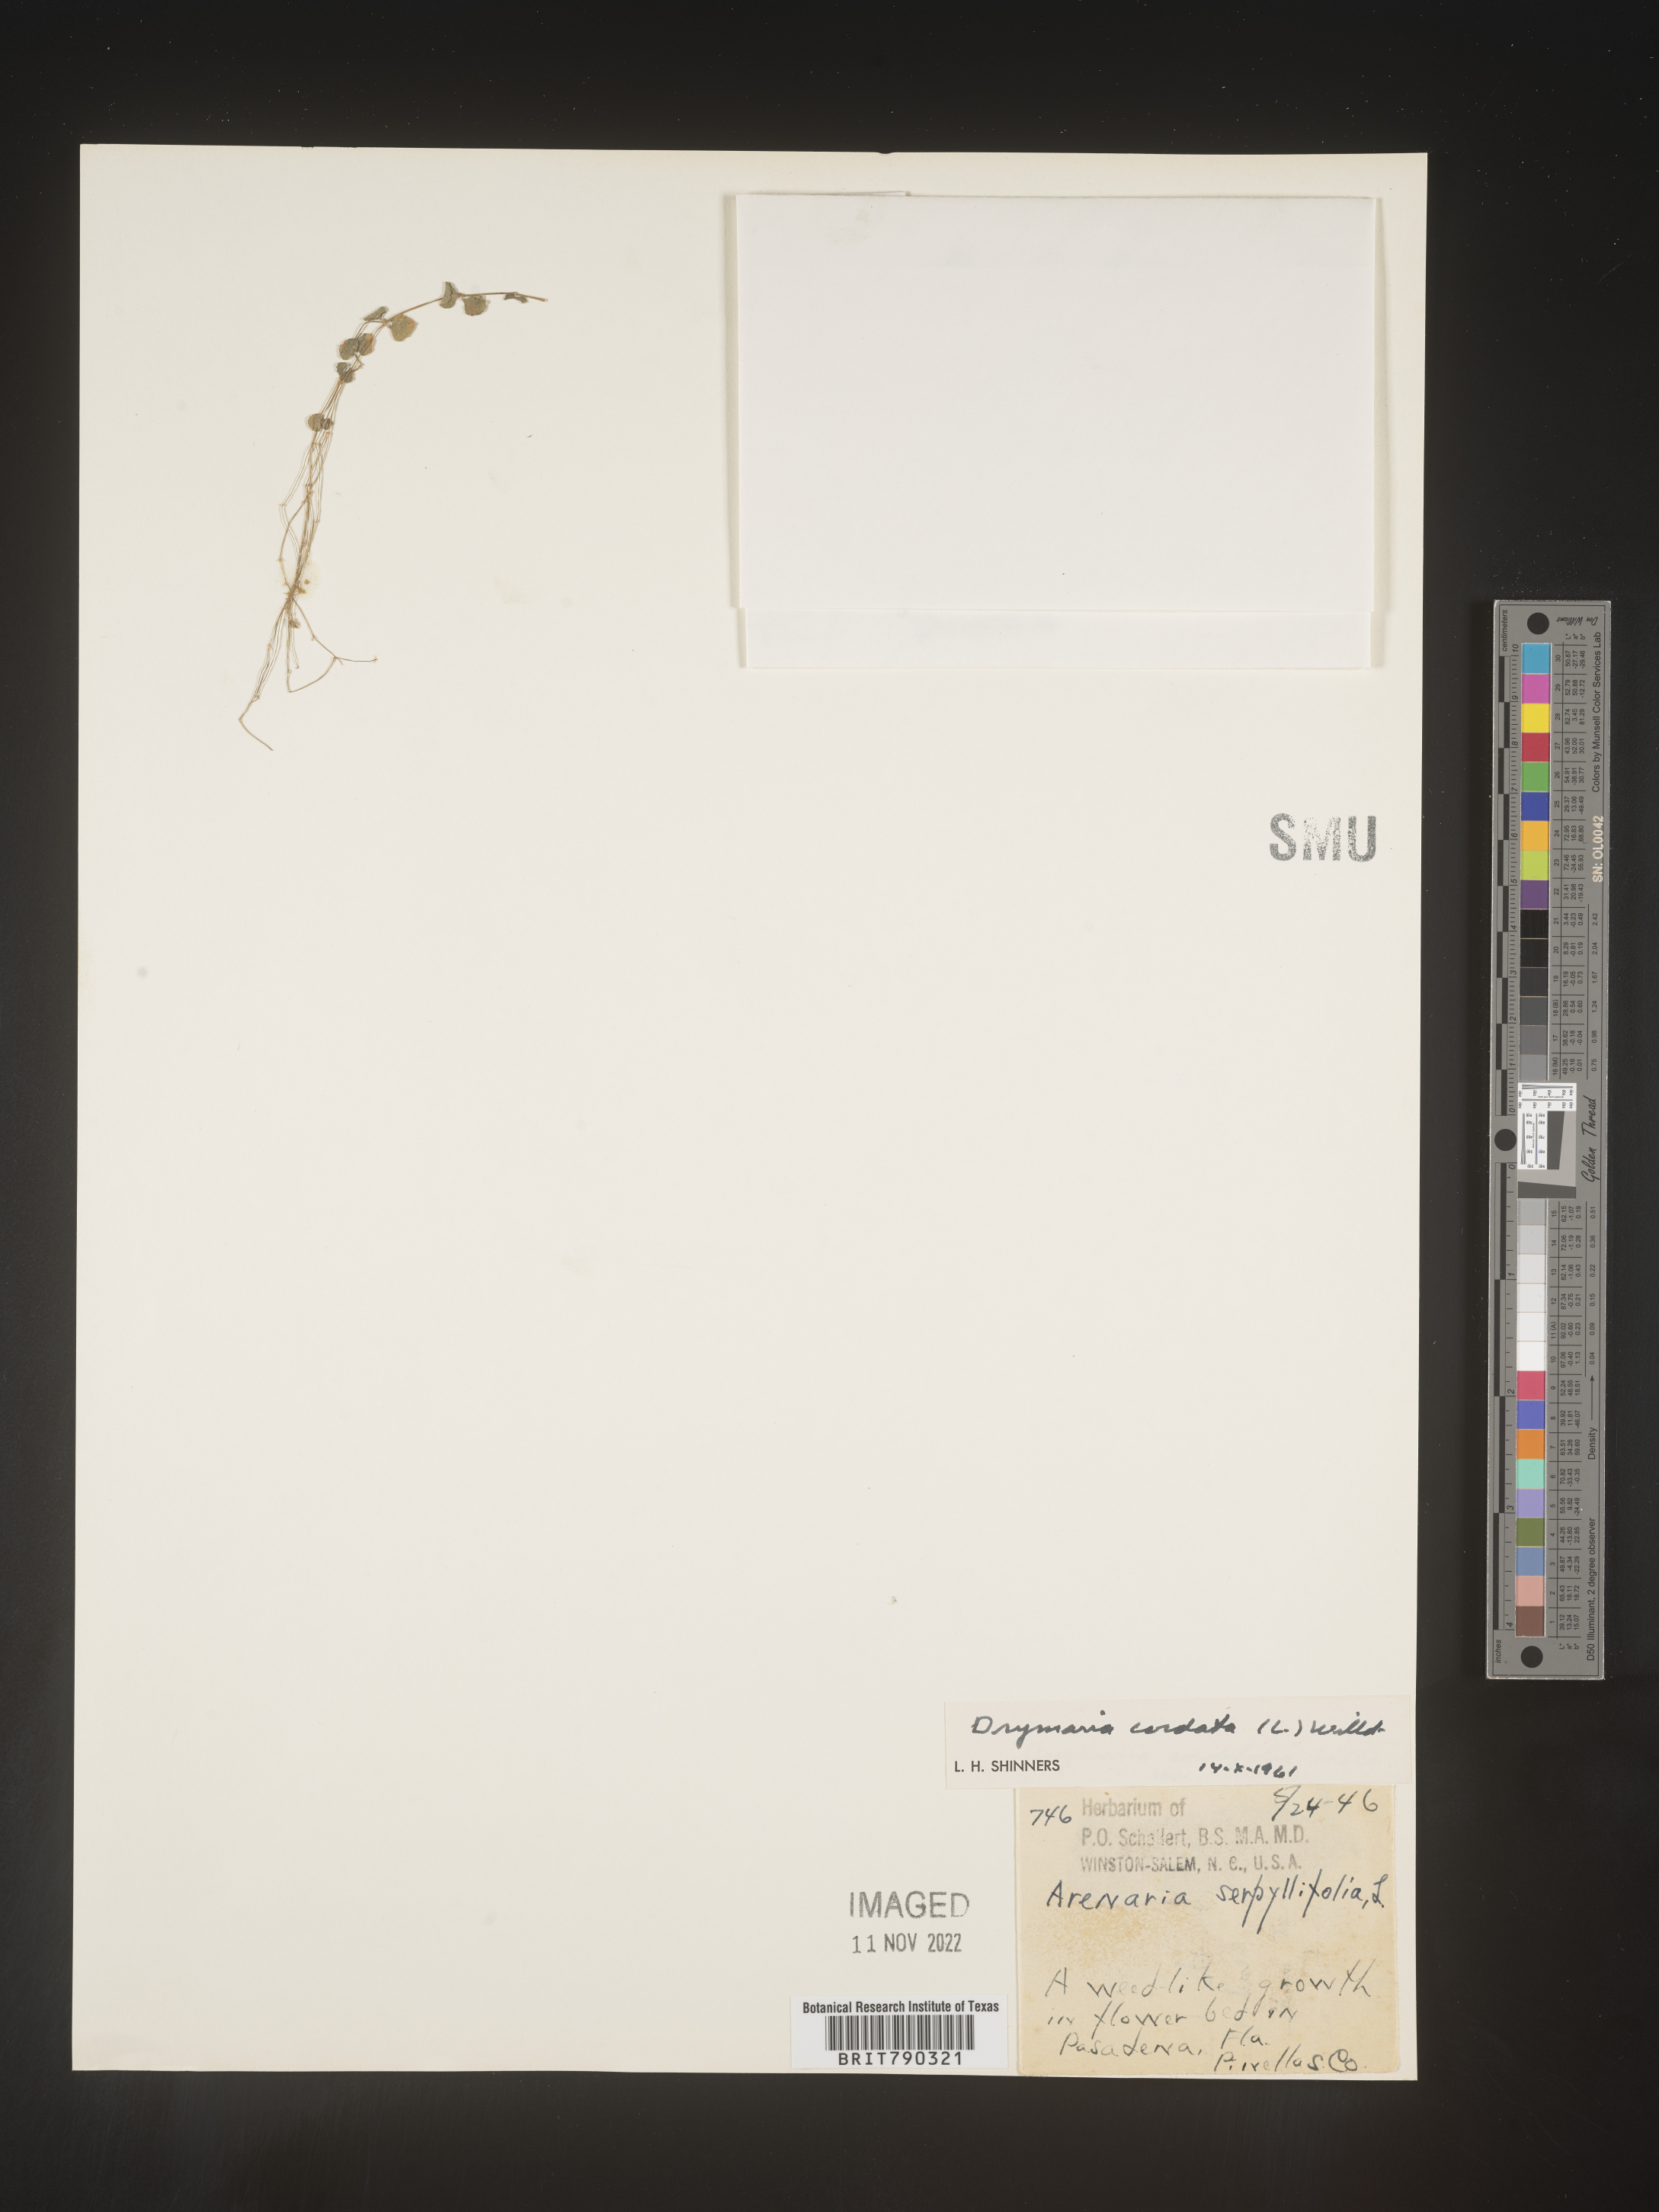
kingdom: Plantae
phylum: Tracheophyta
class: Magnoliopsida
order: Caryophyllales
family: Caryophyllaceae
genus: Drymaria
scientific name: Drymaria
